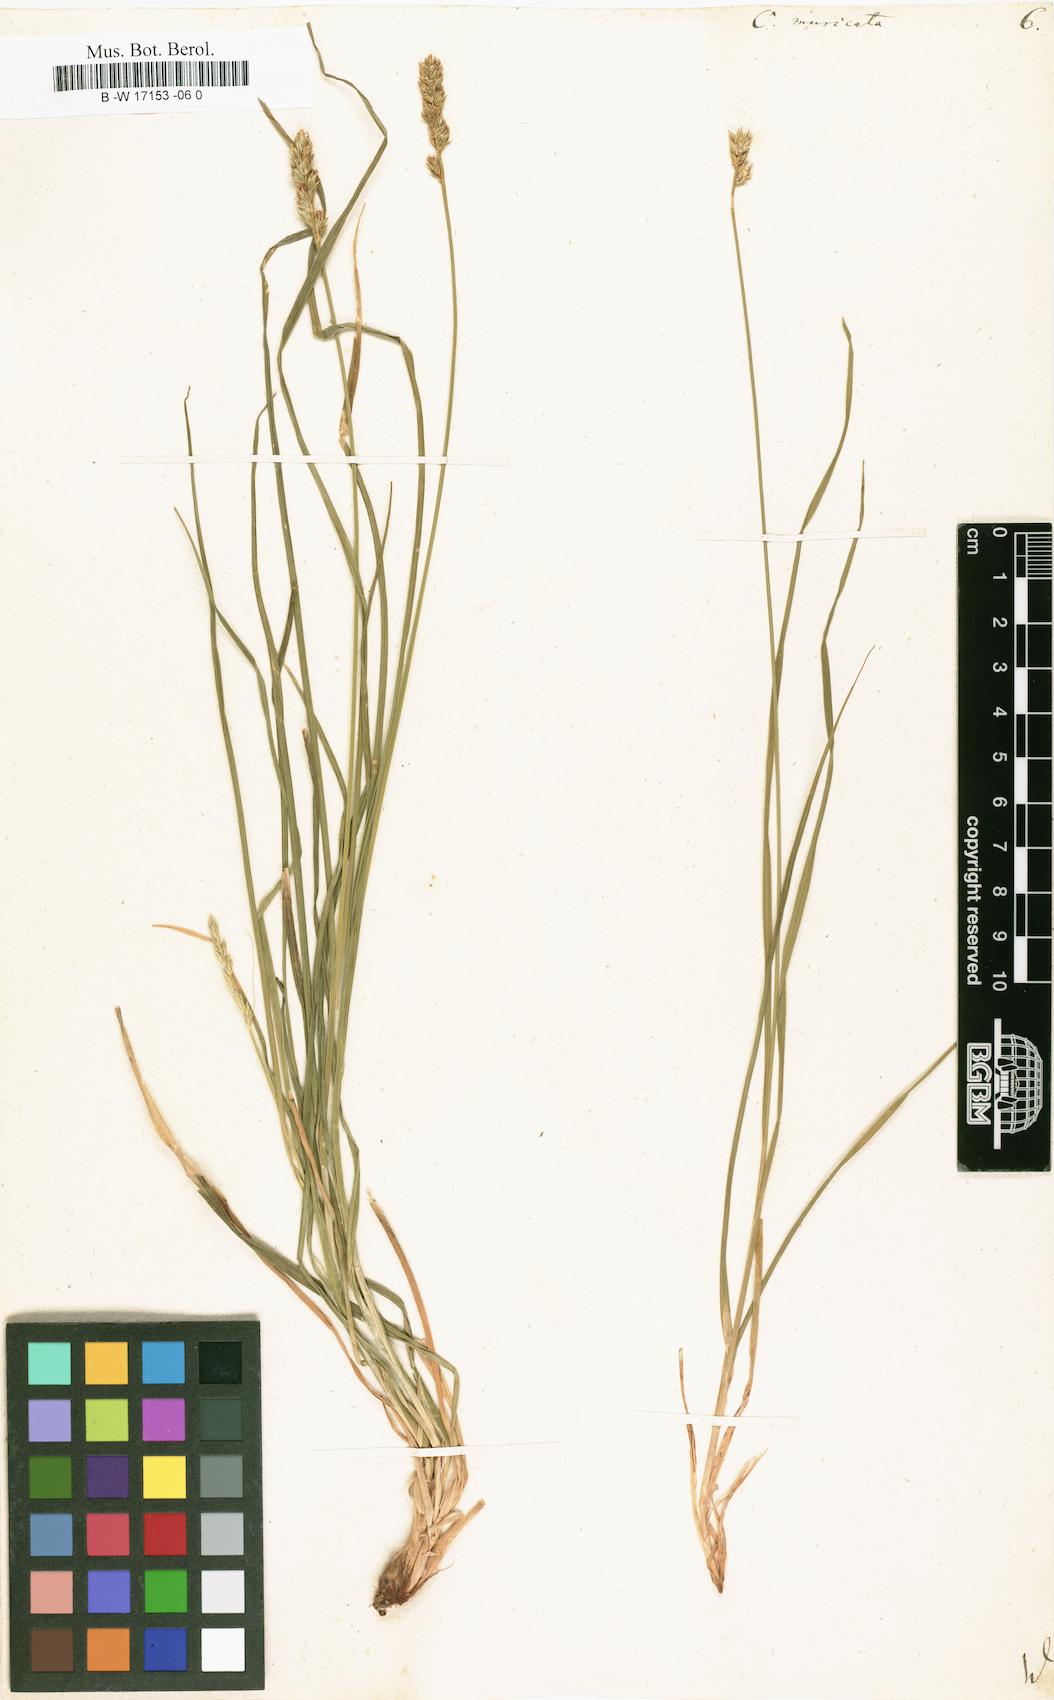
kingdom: Plantae
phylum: Tracheophyta
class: Liliopsida
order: Poales
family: Cyperaceae
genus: Carex
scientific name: Carex muricata
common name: Rough sedge
